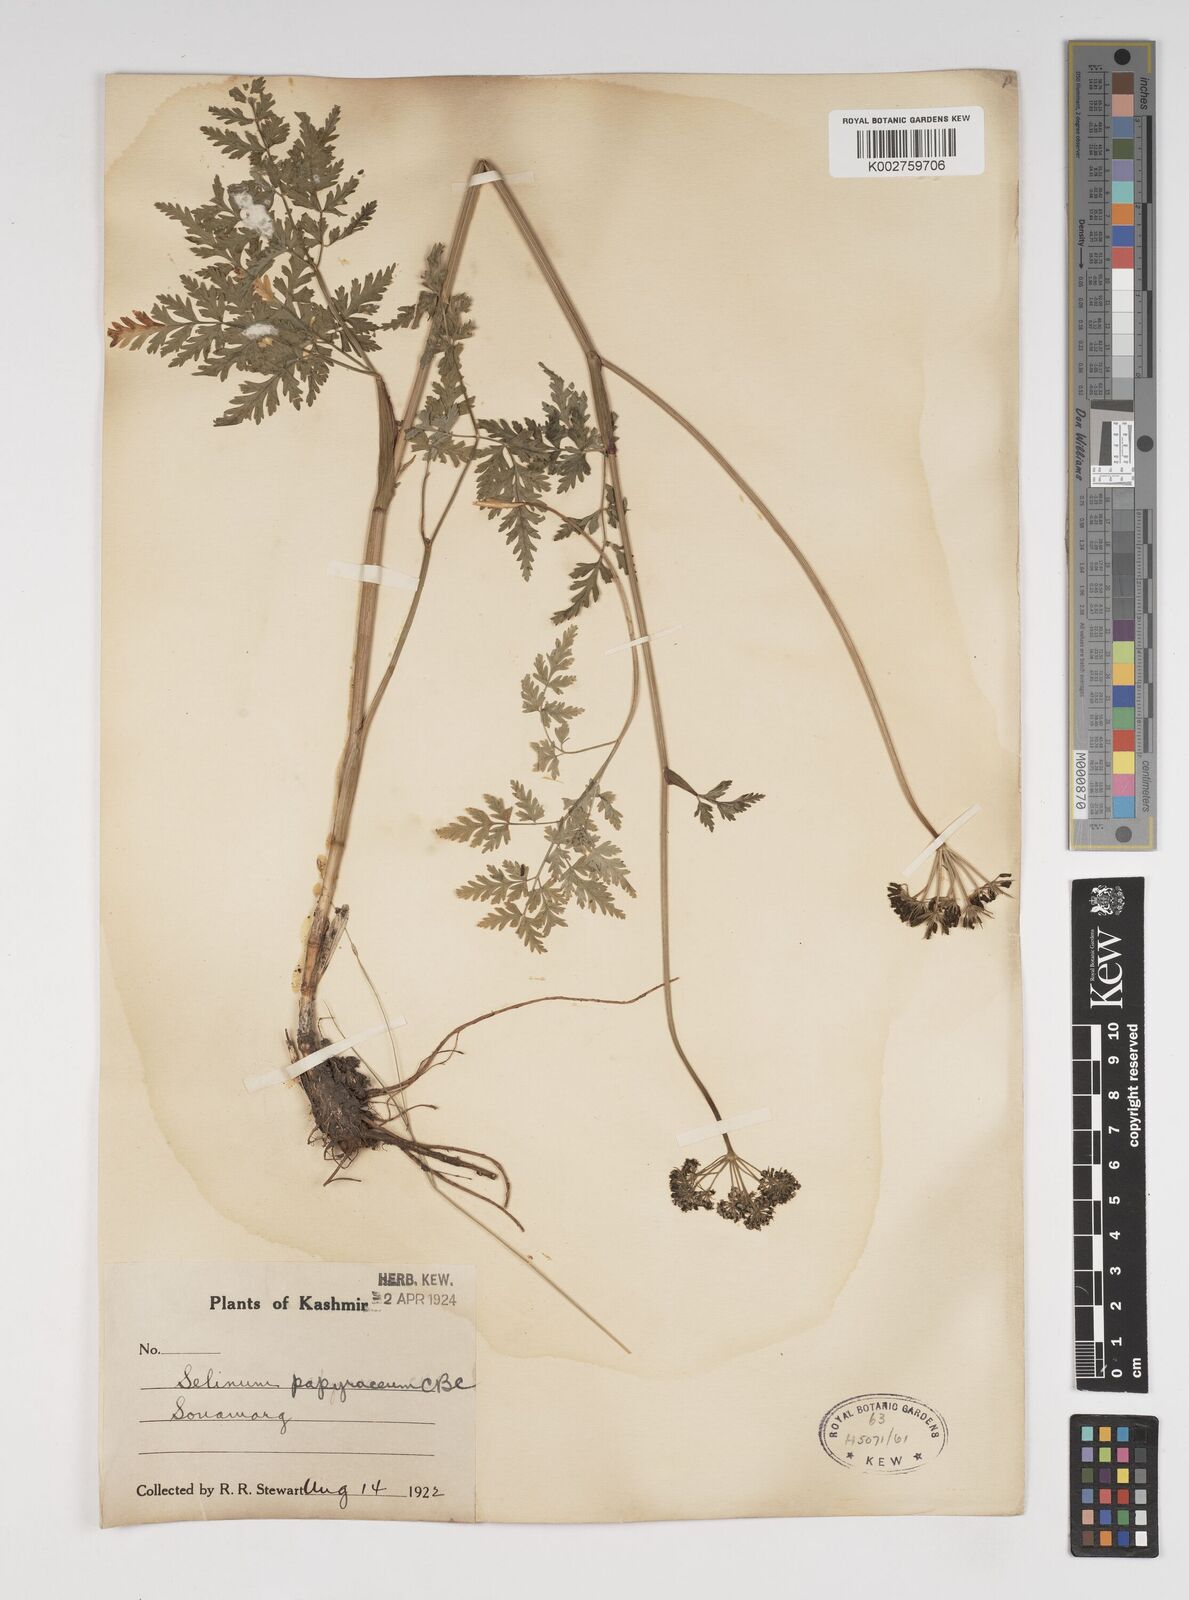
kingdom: Plantae
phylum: Tracheophyta
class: Magnoliopsida
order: Apiales
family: Apiaceae
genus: Conioselinum
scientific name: Conioselinum tataricum
